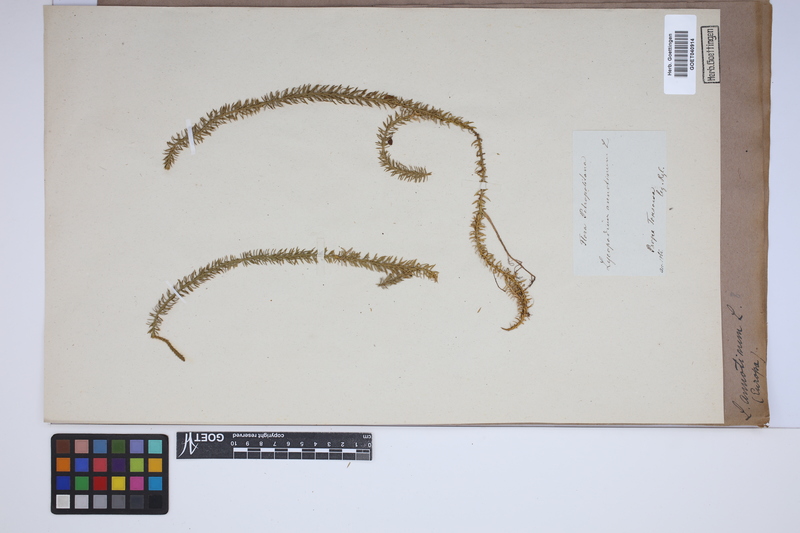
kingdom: Plantae
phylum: Tracheophyta
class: Lycopodiopsida
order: Lycopodiales
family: Lycopodiaceae
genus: Spinulum
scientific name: Spinulum annotinum
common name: Interrupted club-moss
